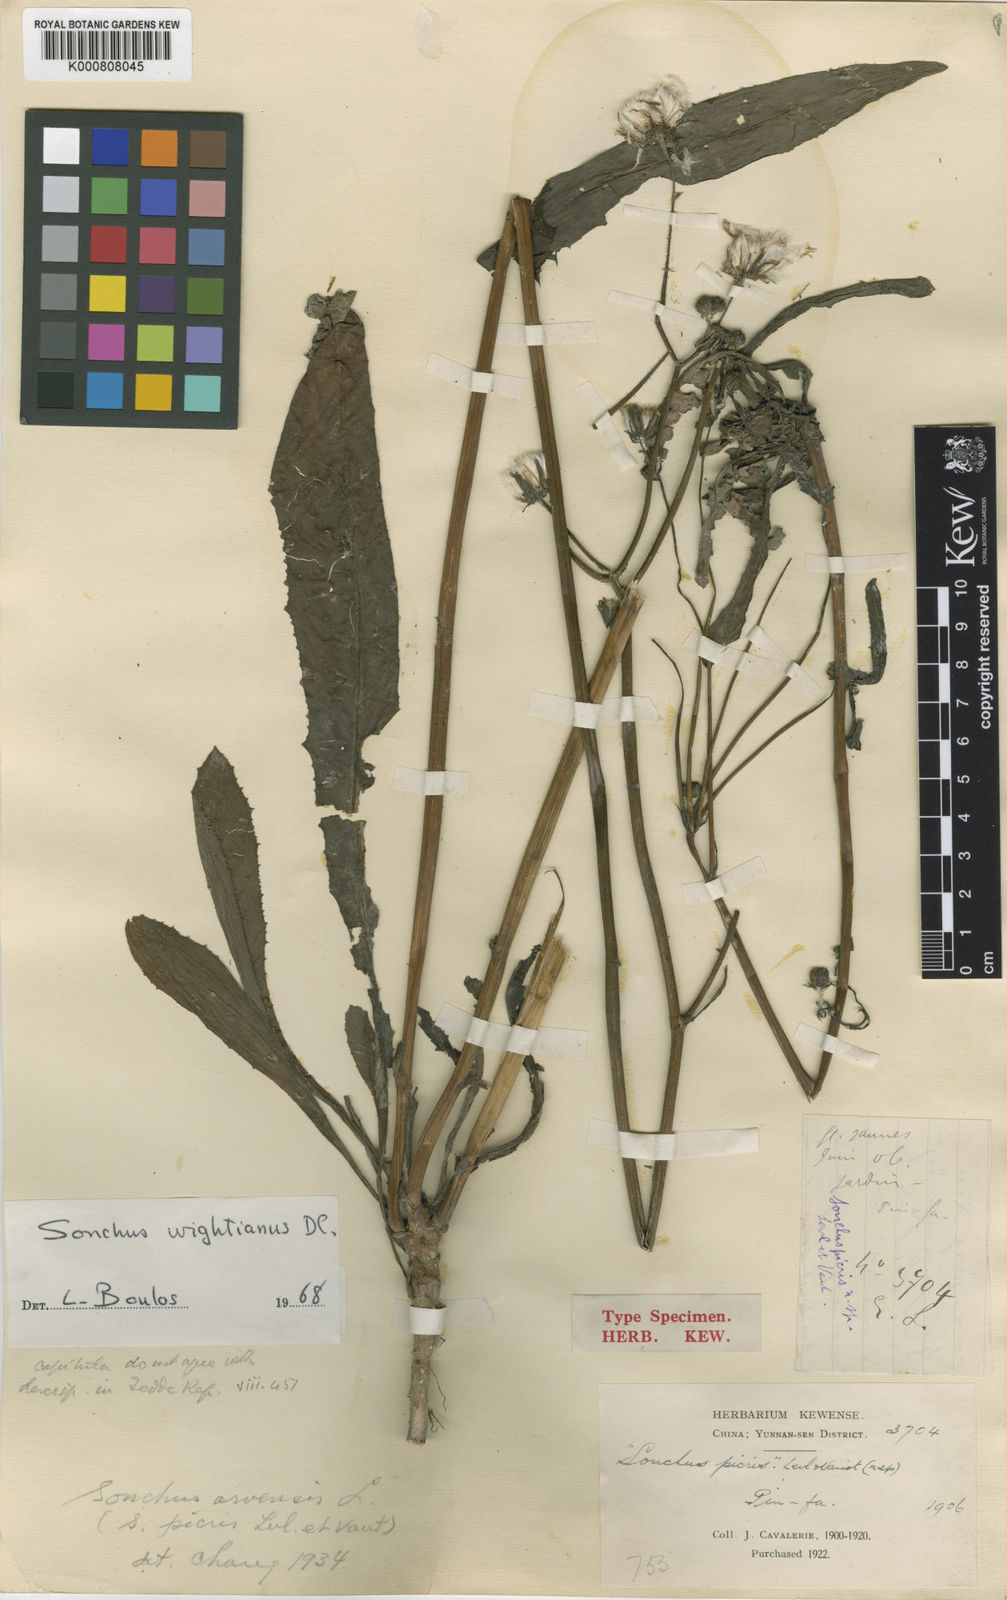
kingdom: Plantae
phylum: Tracheophyta
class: Magnoliopsida
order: Asterales
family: Asteraceae
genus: Sonchus
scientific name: Sonchus wightianus
